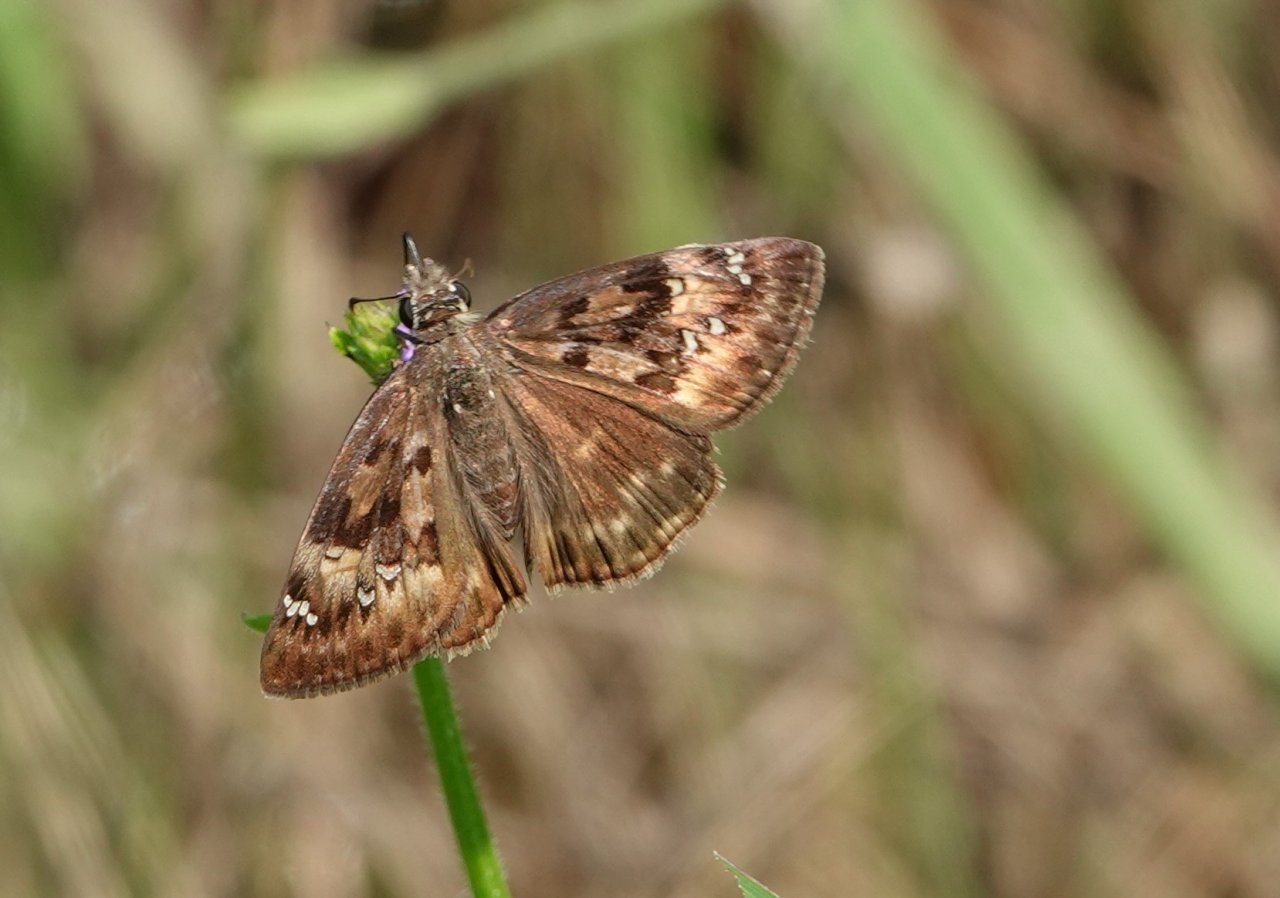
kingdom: Animalia
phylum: Arthropoda
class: Insecta
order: Lepidoptera
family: Hesperiidae
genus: Gesta
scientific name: Gesta
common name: Horace's Duskywing
